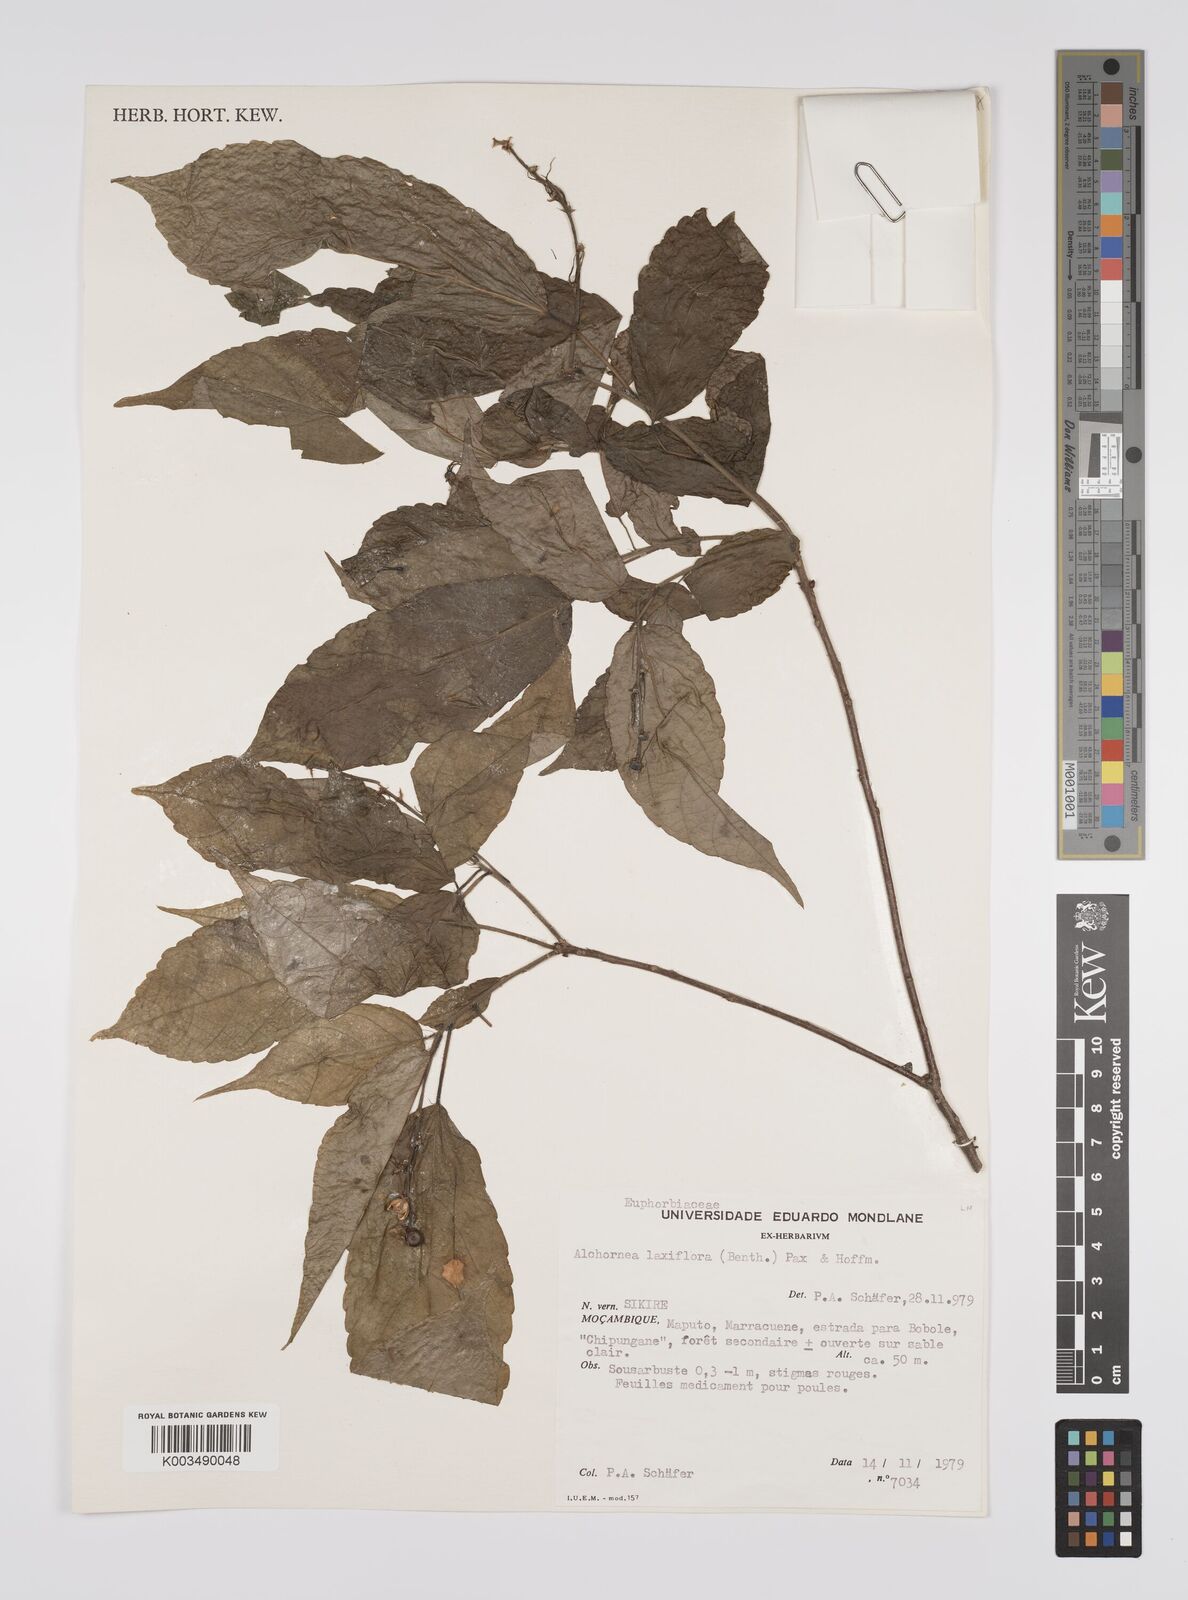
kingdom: Plantae
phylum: Tracheophyta
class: Magnoliopsida
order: Malpighiales
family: Euphorbiaceae
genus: Alchornea
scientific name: Alchornea laxiflora
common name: Lowveld bead-string
